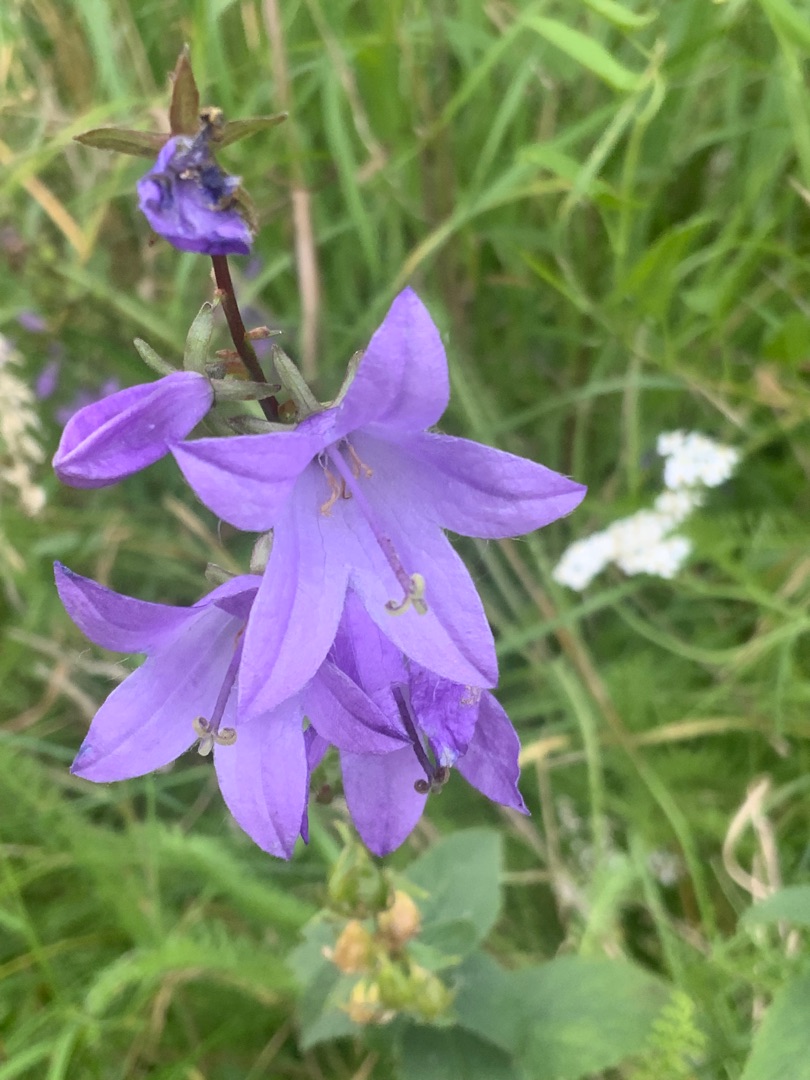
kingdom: Plantae
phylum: Tracheophyta
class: Magnoliopsida
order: Asterales
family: Campanulaceae
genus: Campanula
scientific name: Campanula rapunculoides
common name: Ensidig klokke
